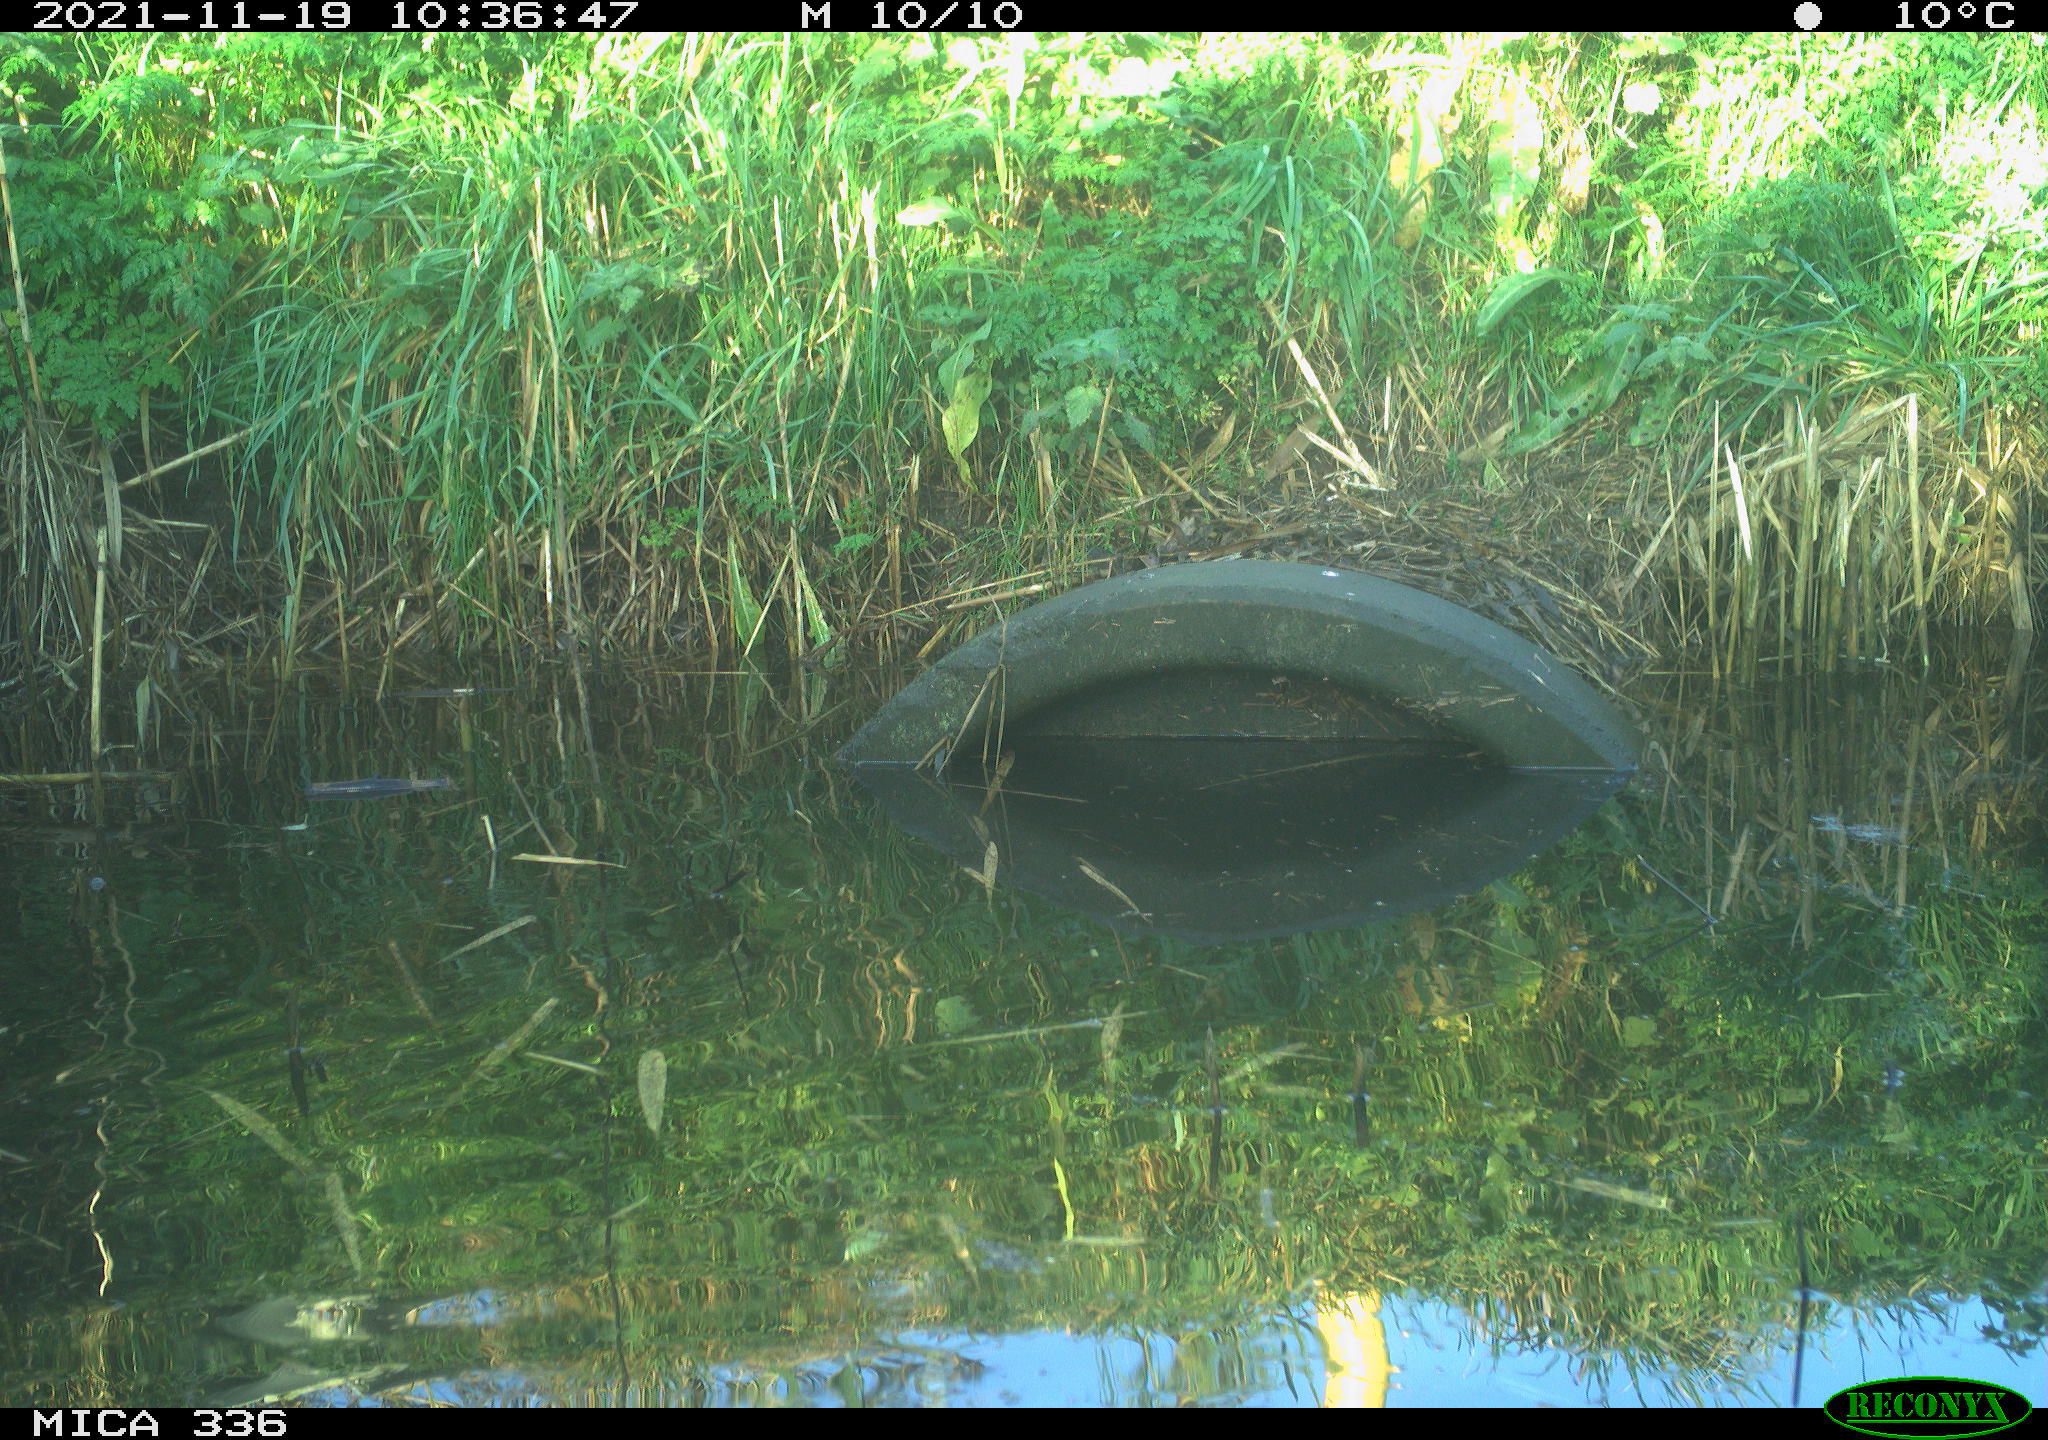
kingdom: Animalia
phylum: Chordata
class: Aves
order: Gruiformes
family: Rallidae
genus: Gallinula
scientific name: Gallinula chloropus
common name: Common moorhen
